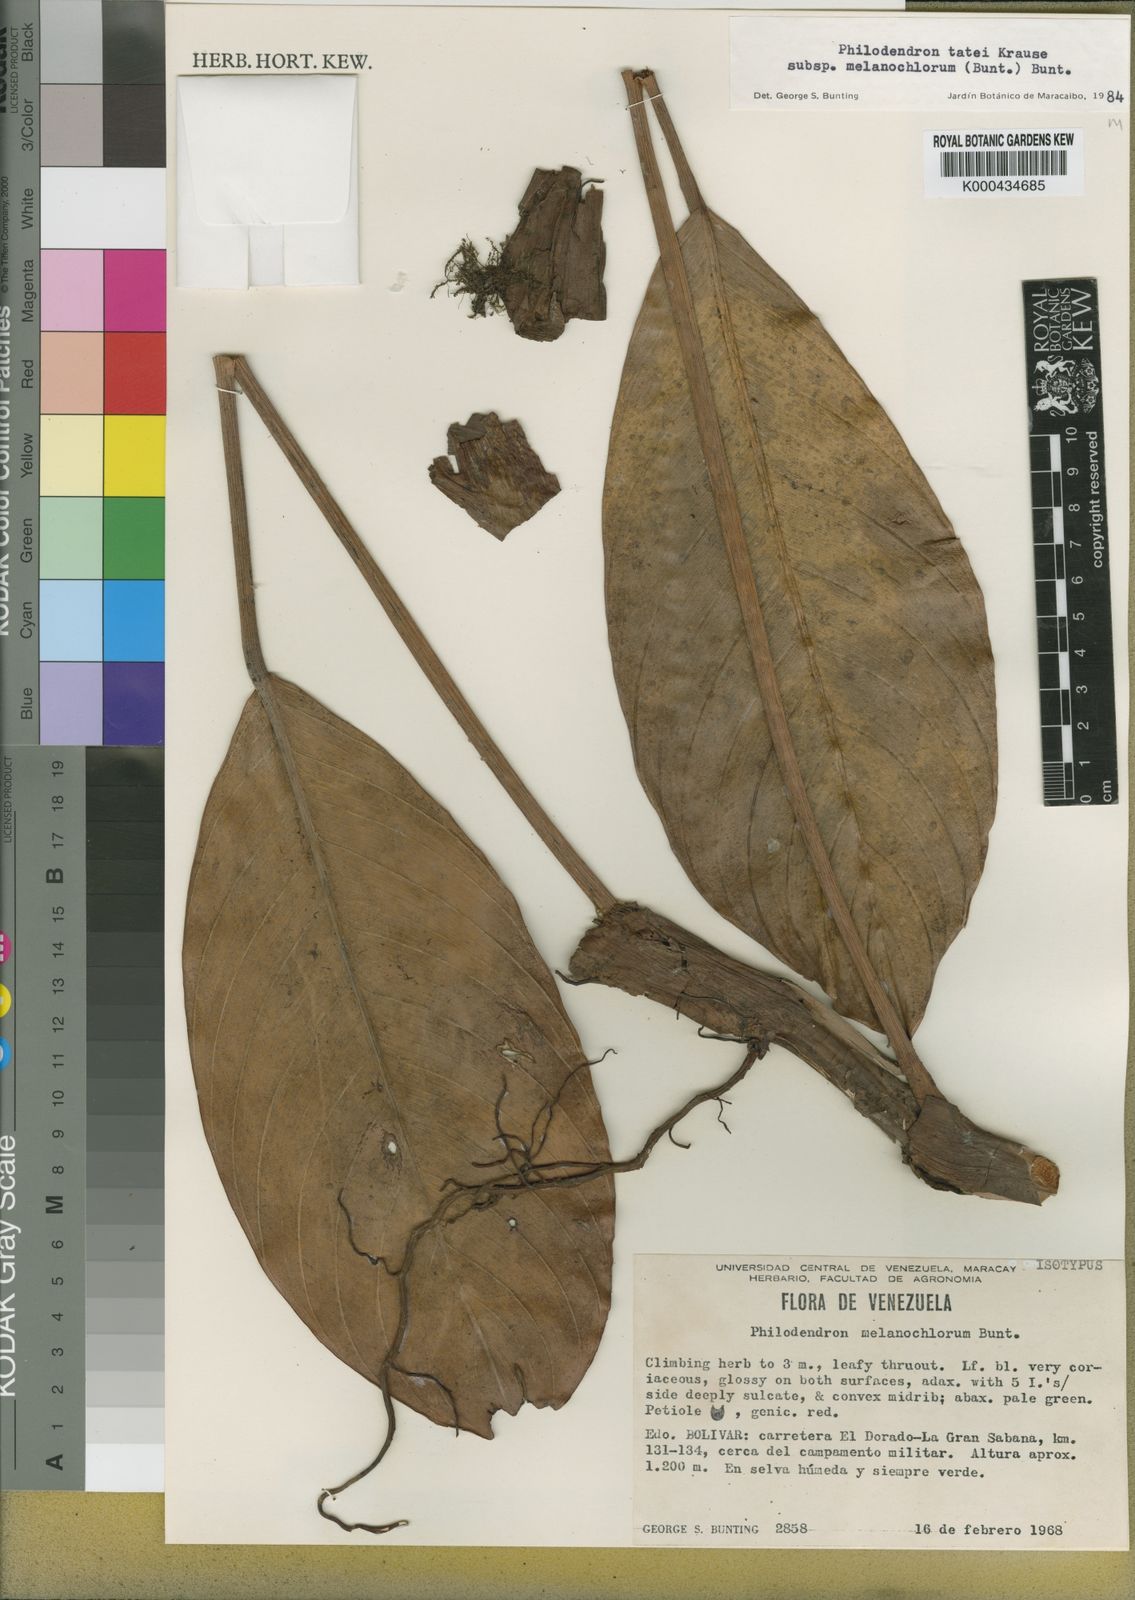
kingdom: Plantae
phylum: Tracheophyta
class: Liliopsida
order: Alismatales
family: Araceae
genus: Philodendron
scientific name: Philodendron tatei
